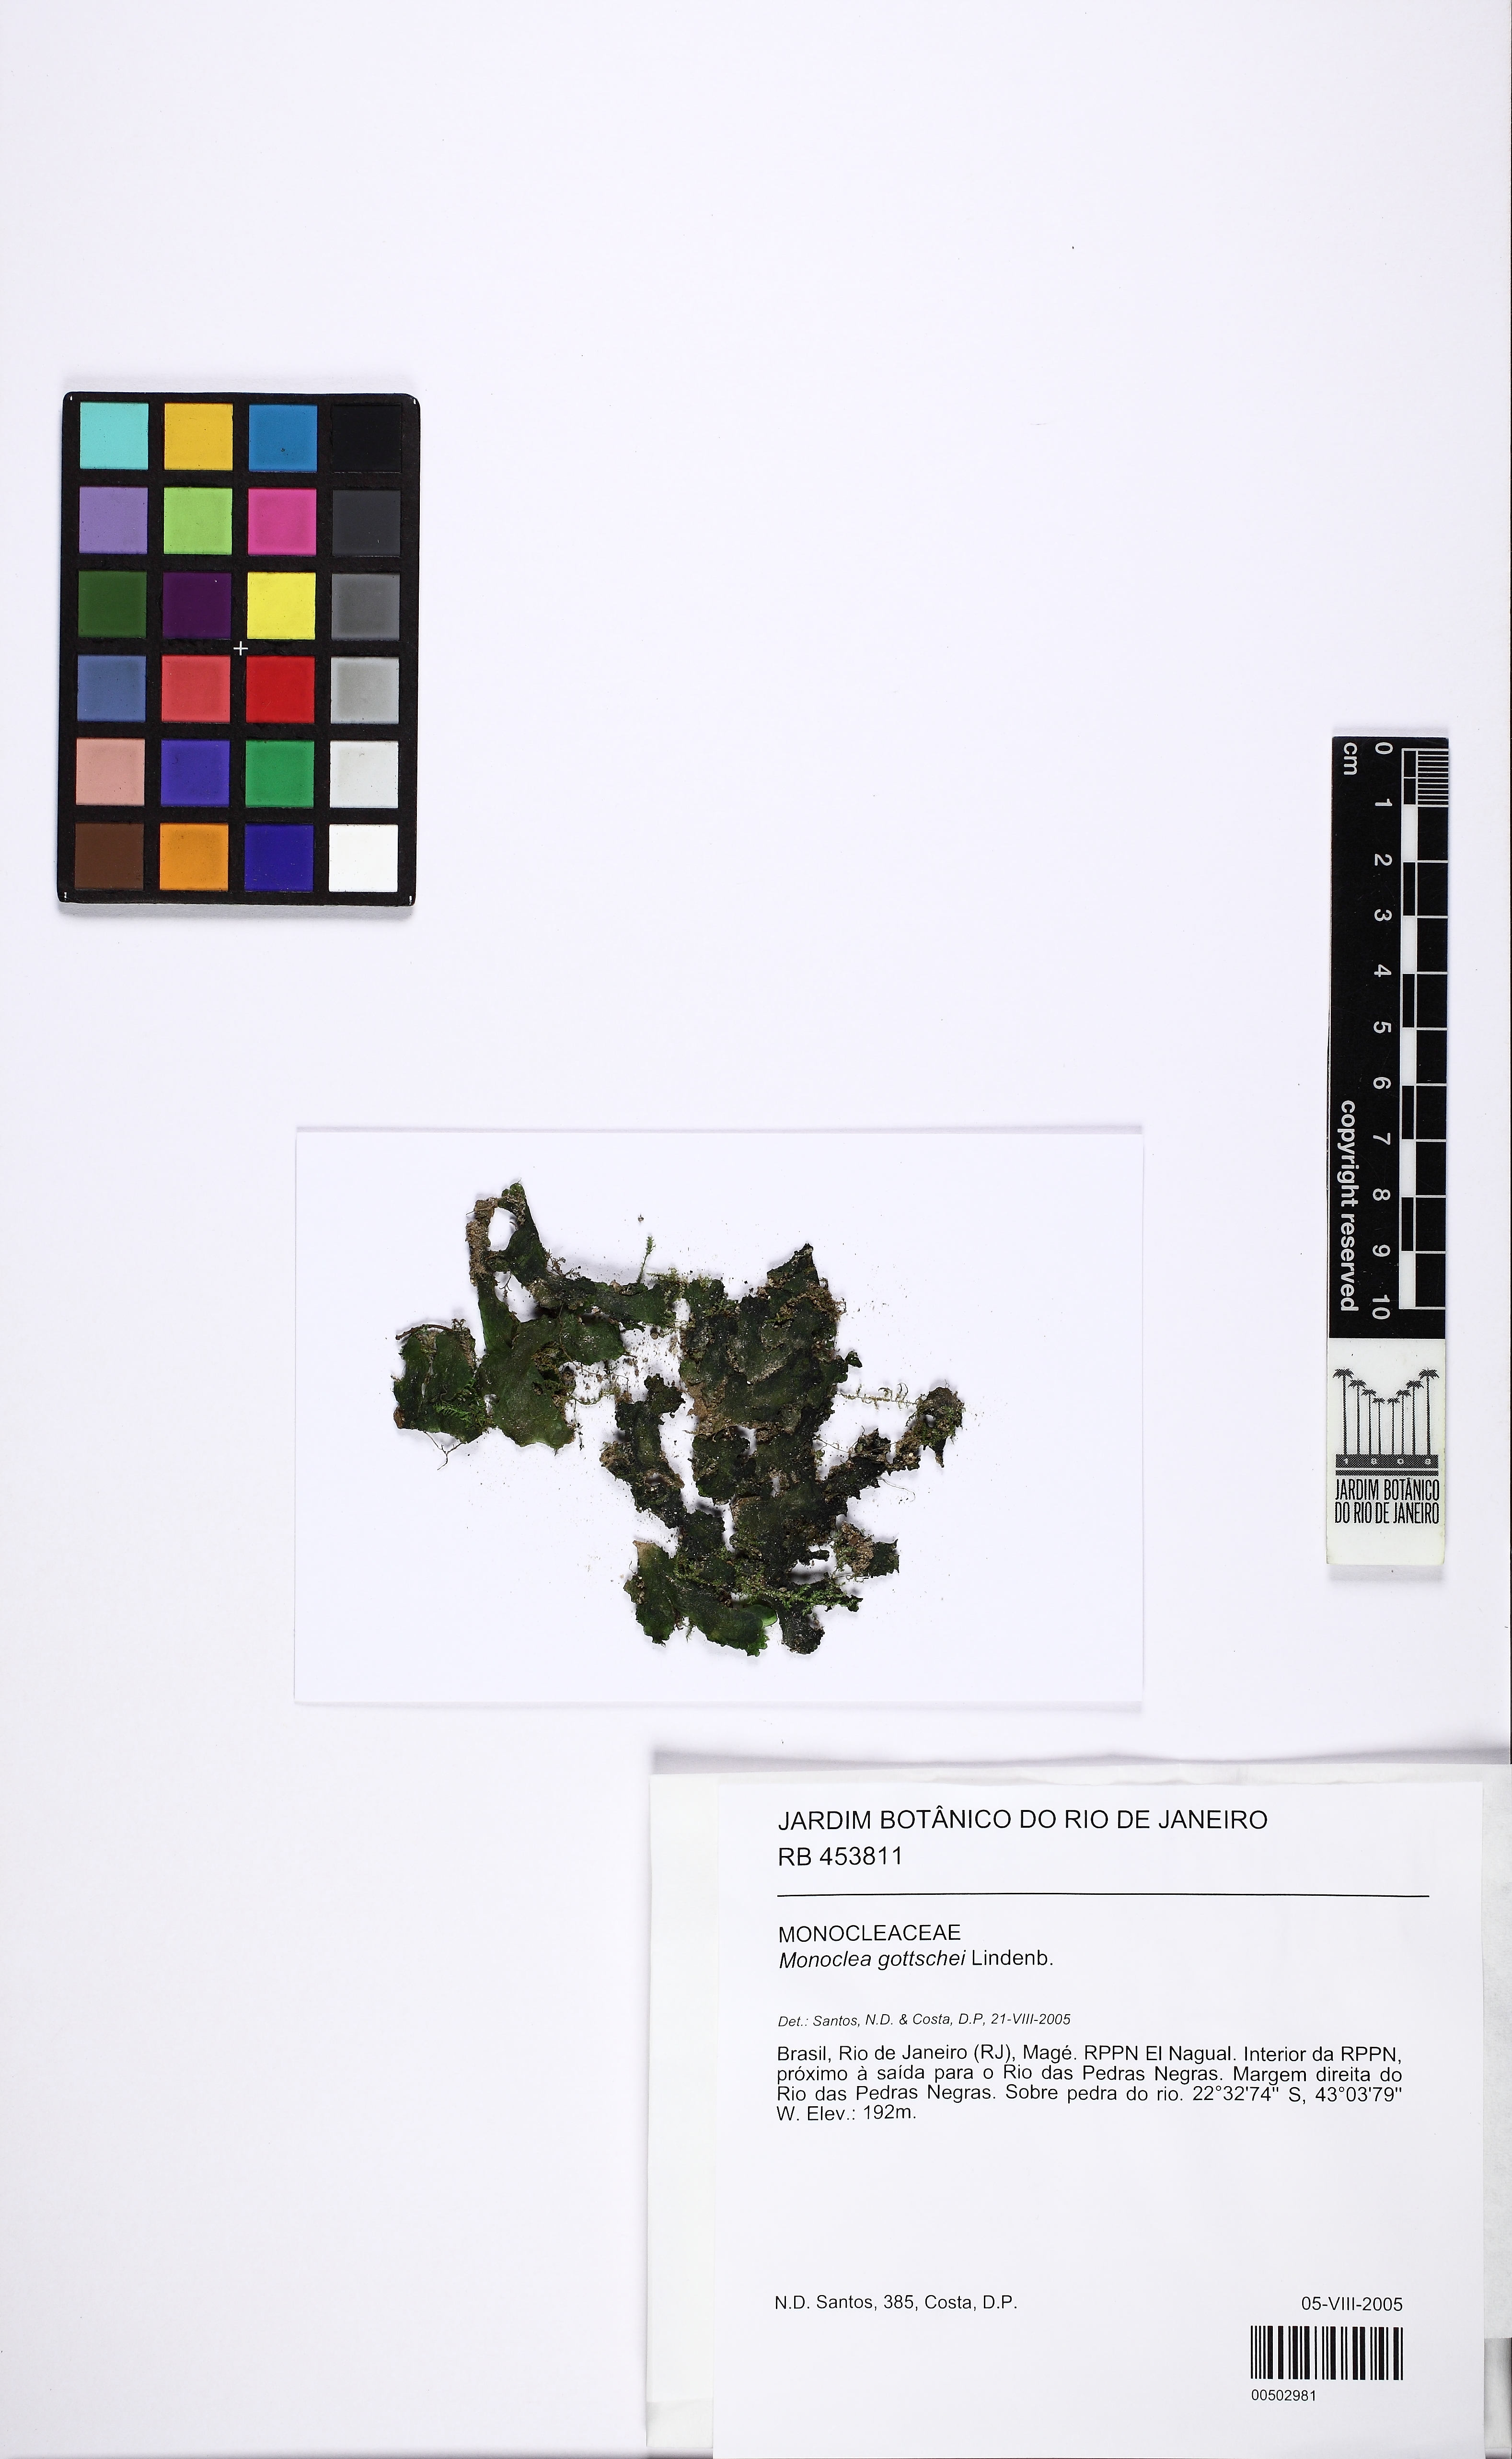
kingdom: Plantae
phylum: Marchantiophyta
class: Marchantiopsida
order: Marchantiales
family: Monocleaceae
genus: Monoclea
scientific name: Monoclea gottschei
